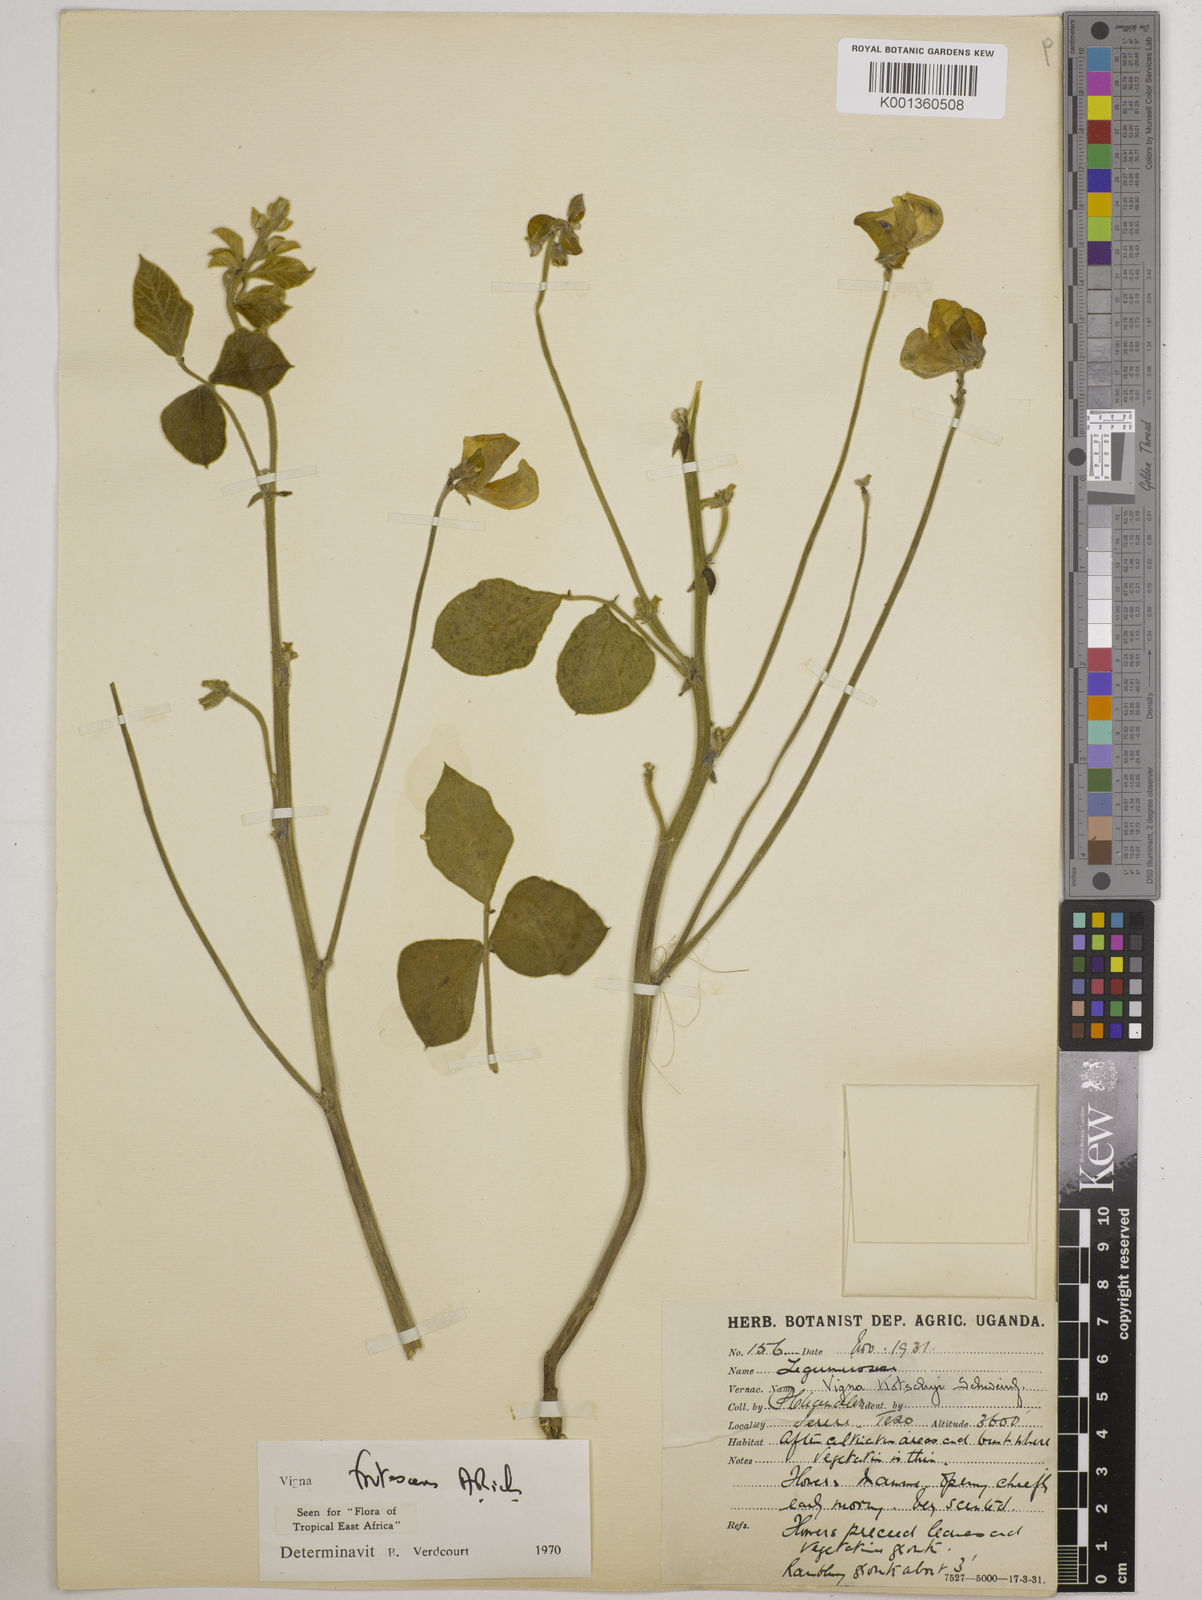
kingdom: Plantae
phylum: Tracheophyta
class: Magnoliopsida
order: Fabales
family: Fabaceae
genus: Vigna
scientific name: Vigna frutescens
